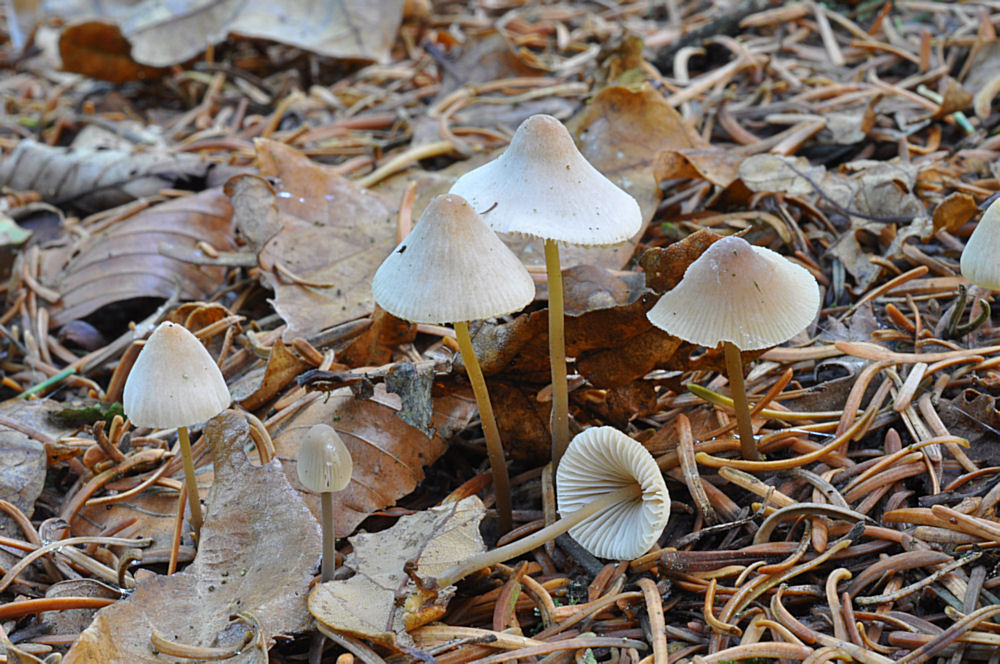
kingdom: Fungi
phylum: Basidiomycota
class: Agaricomycetes
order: Agaricales
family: Mycenaceae
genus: Mycena
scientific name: Mycena metata
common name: rødlig huesvamp
